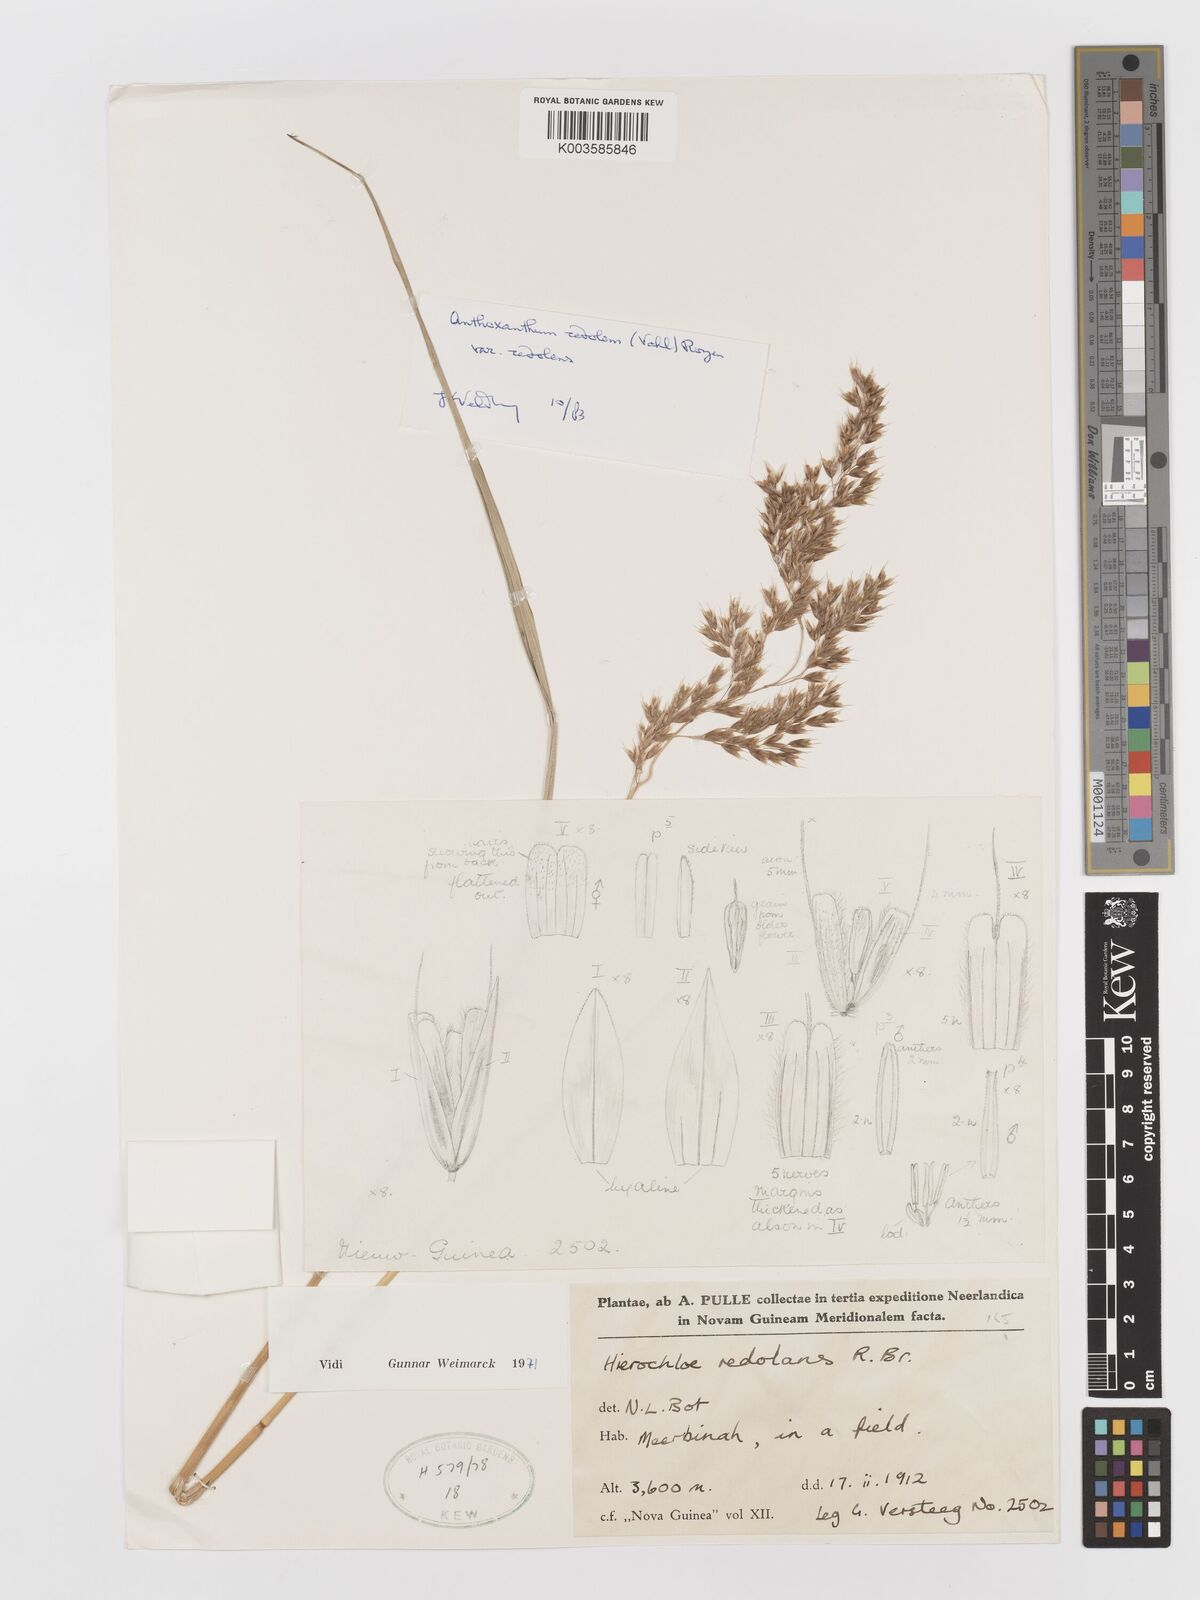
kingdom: Plantae
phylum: Tracheophyta
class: Liliopsida
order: Poales
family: Poaceae
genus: Anthoxanthum
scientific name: Anthoxanthum redolens
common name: Sweet holy grass
